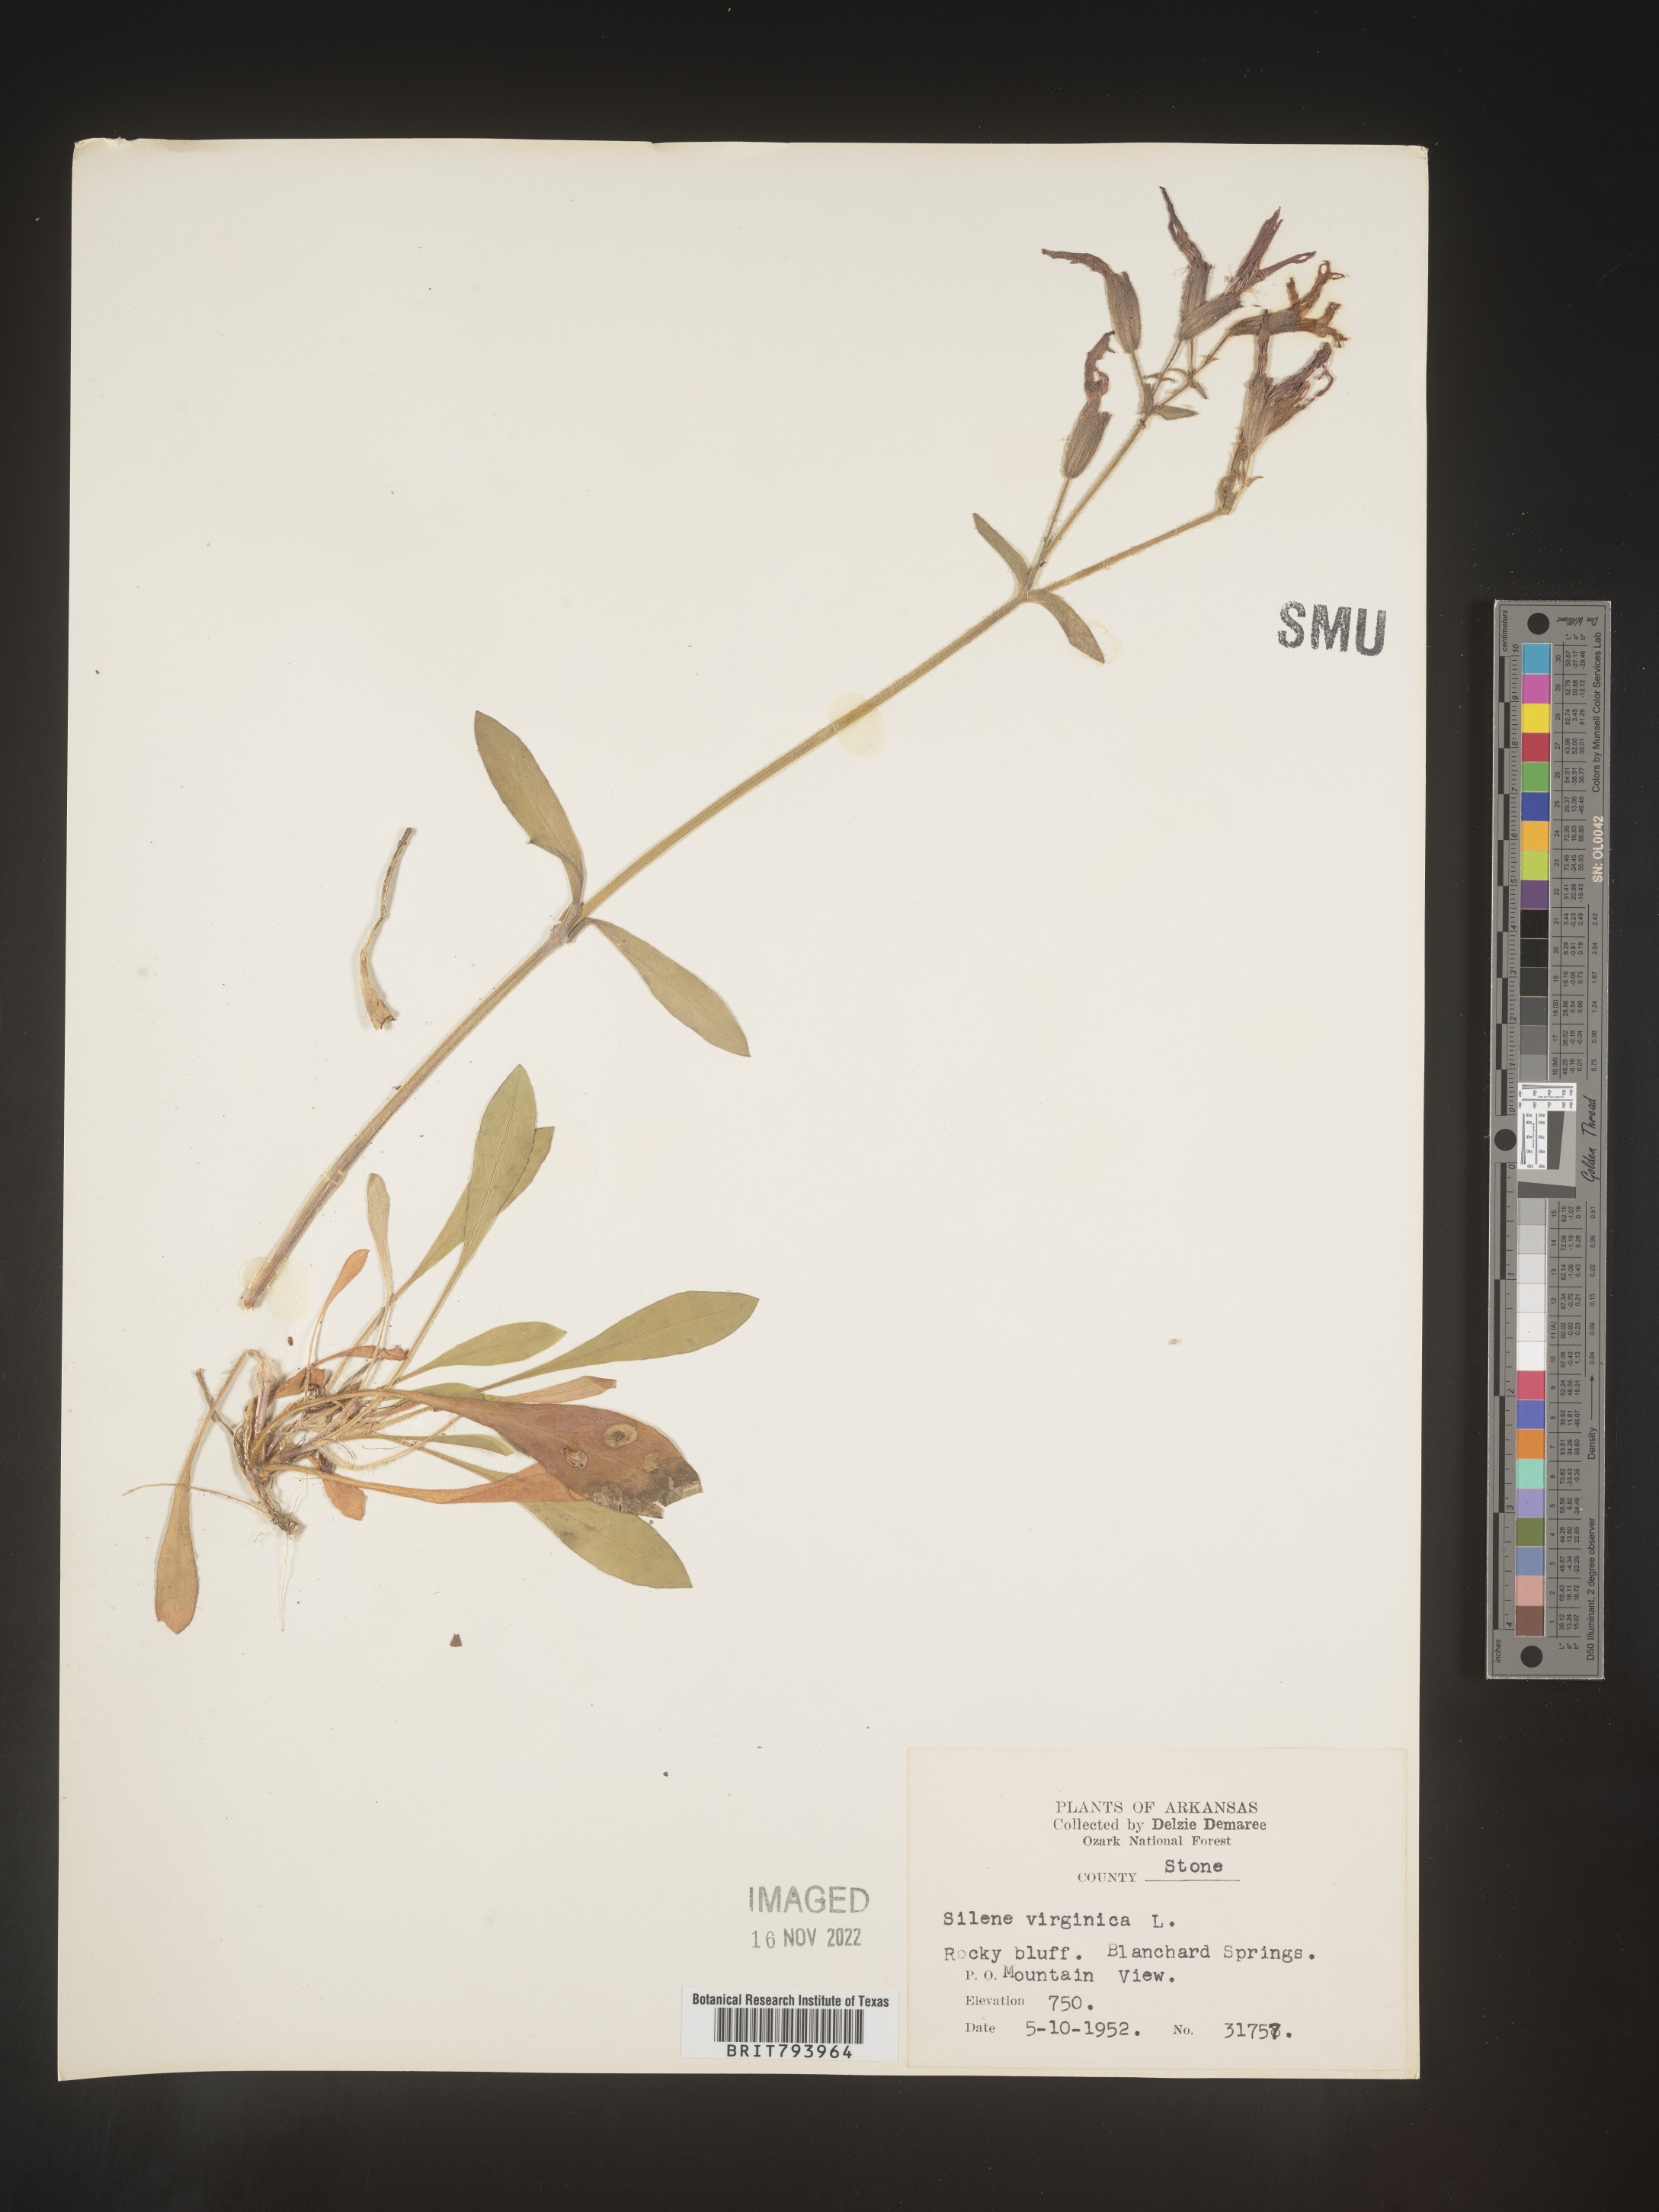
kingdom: Plantae
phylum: Tracheophyta
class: Magnoliopsida
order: Caryophyllales
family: Caryophyllaceae
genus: Silene
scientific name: Silene virginica
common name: Fire-pink
